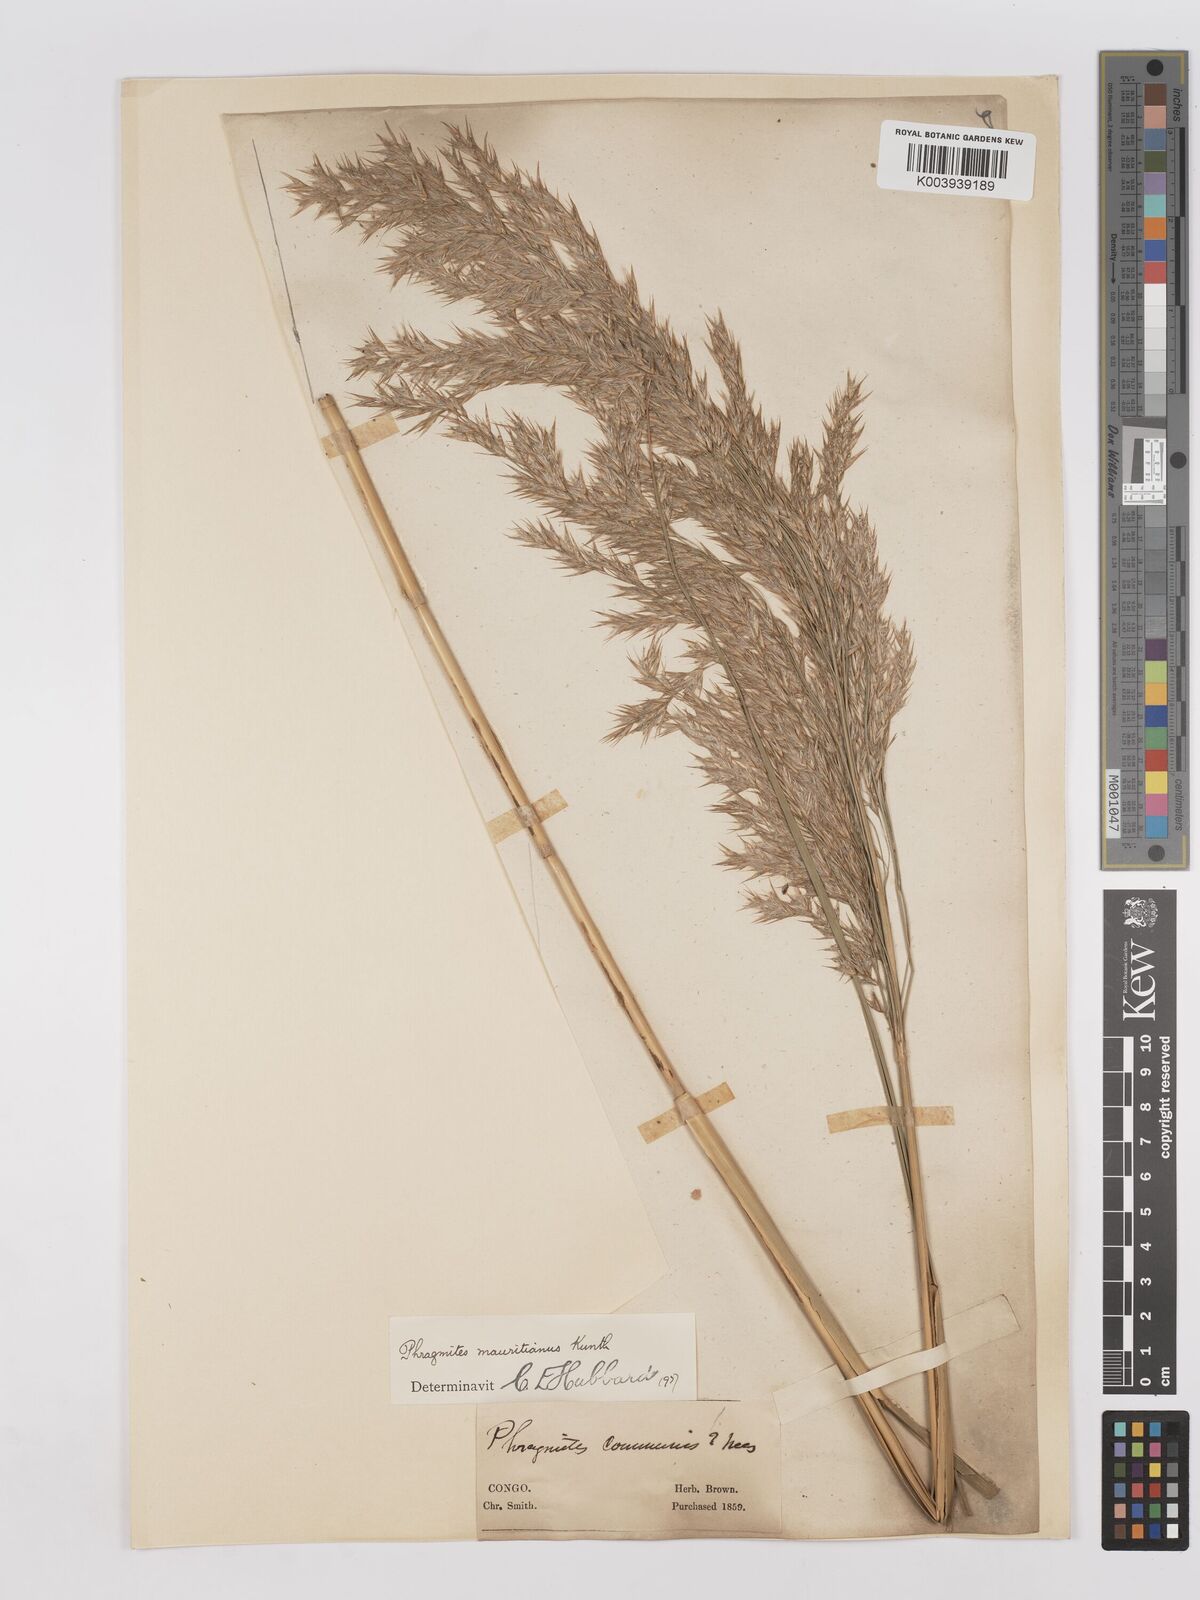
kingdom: Plantae
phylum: Tracheophyta
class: Liliopsida
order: Poales
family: Poaceae
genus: Phragmites
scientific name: Phragmites mauritianus
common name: Reed grass
